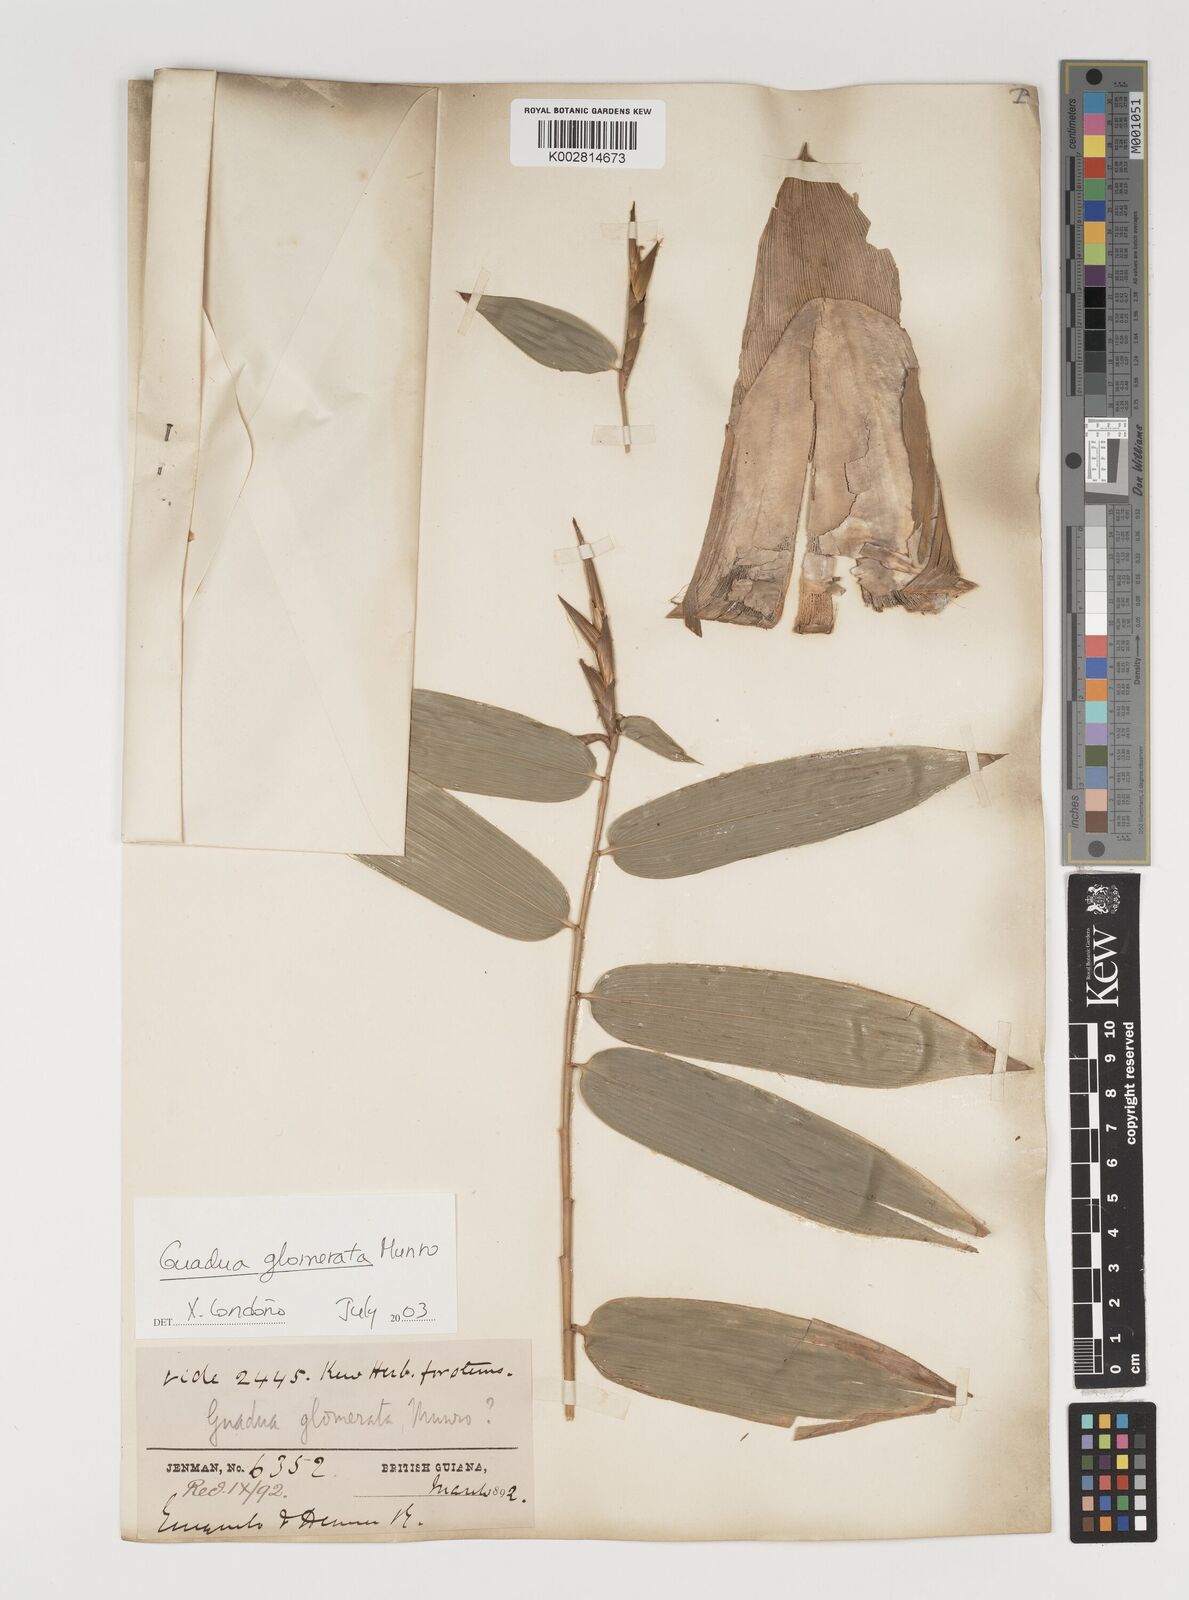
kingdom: Plantae
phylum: Tracheophyta
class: Liliopsida
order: Poales
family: Poaceae
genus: Guadua
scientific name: Guadua glomerata
